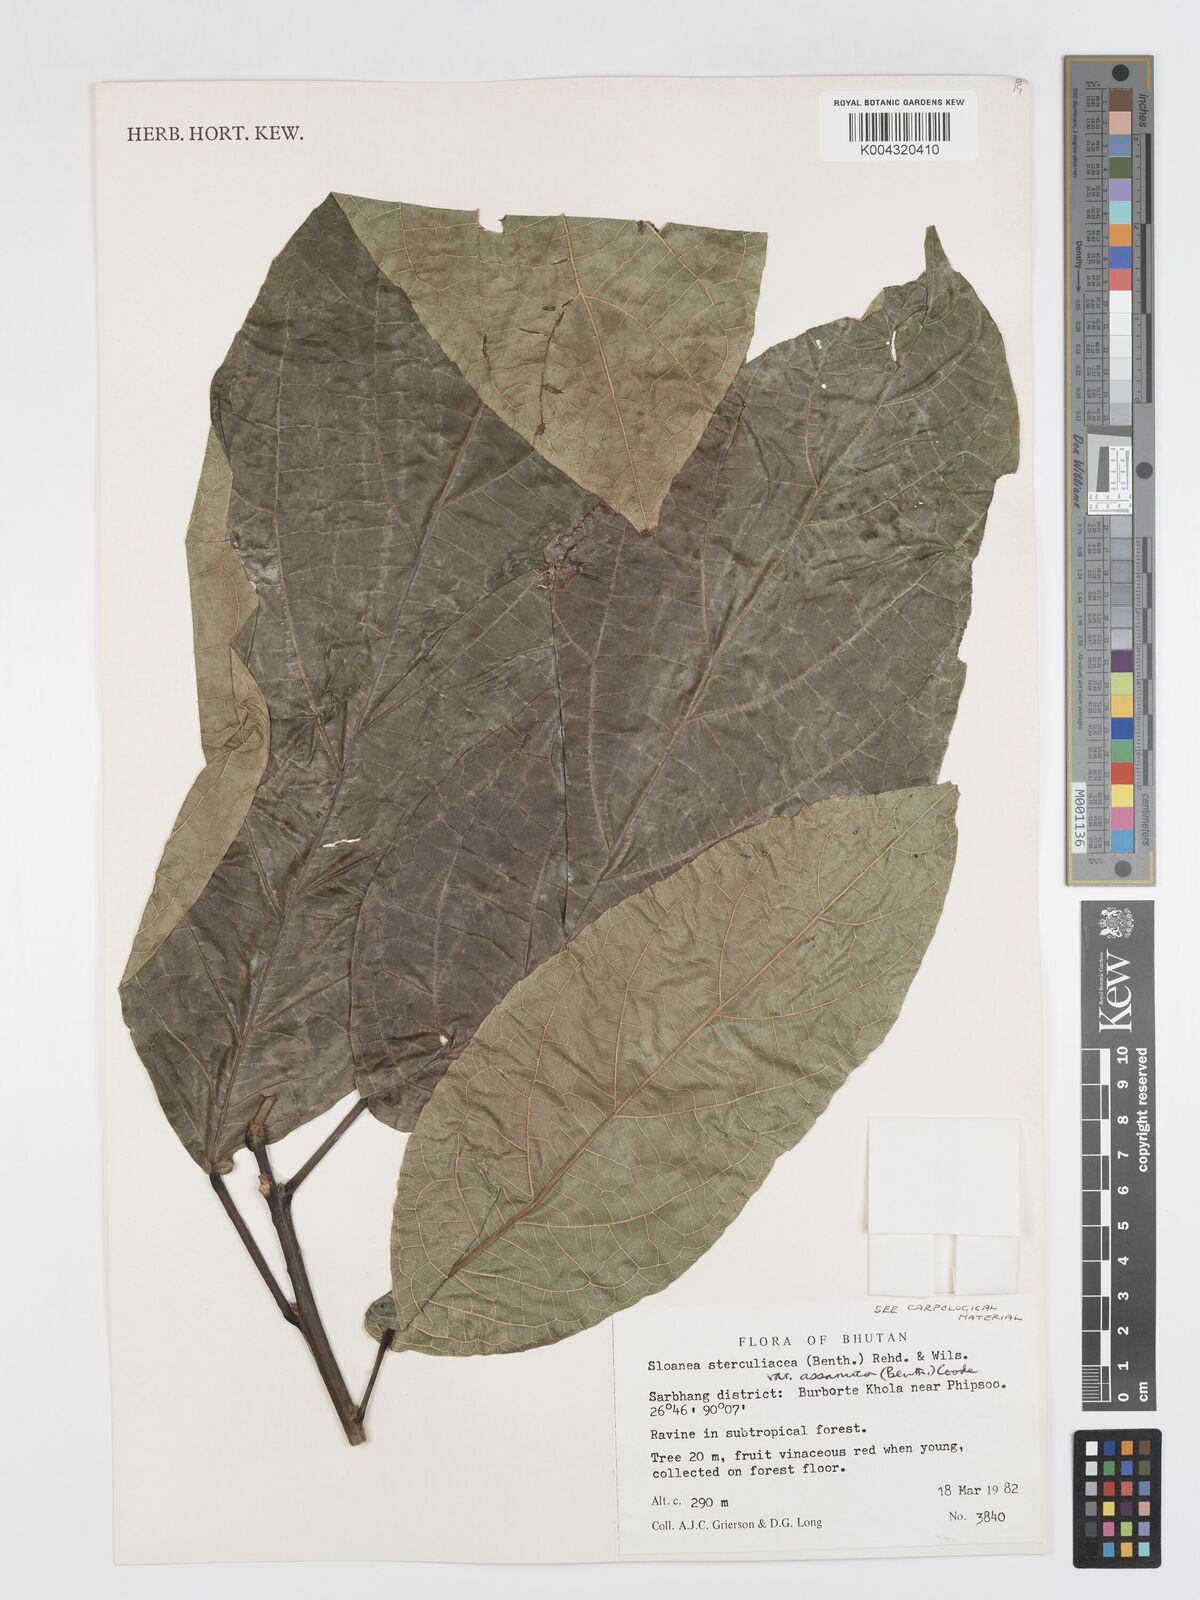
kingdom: Plantae
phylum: Tracheophyta
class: Magnoliopsida
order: Oxalidales
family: Elaeocarpaceae
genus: Sloanea
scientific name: Sloanea sterculiacea
